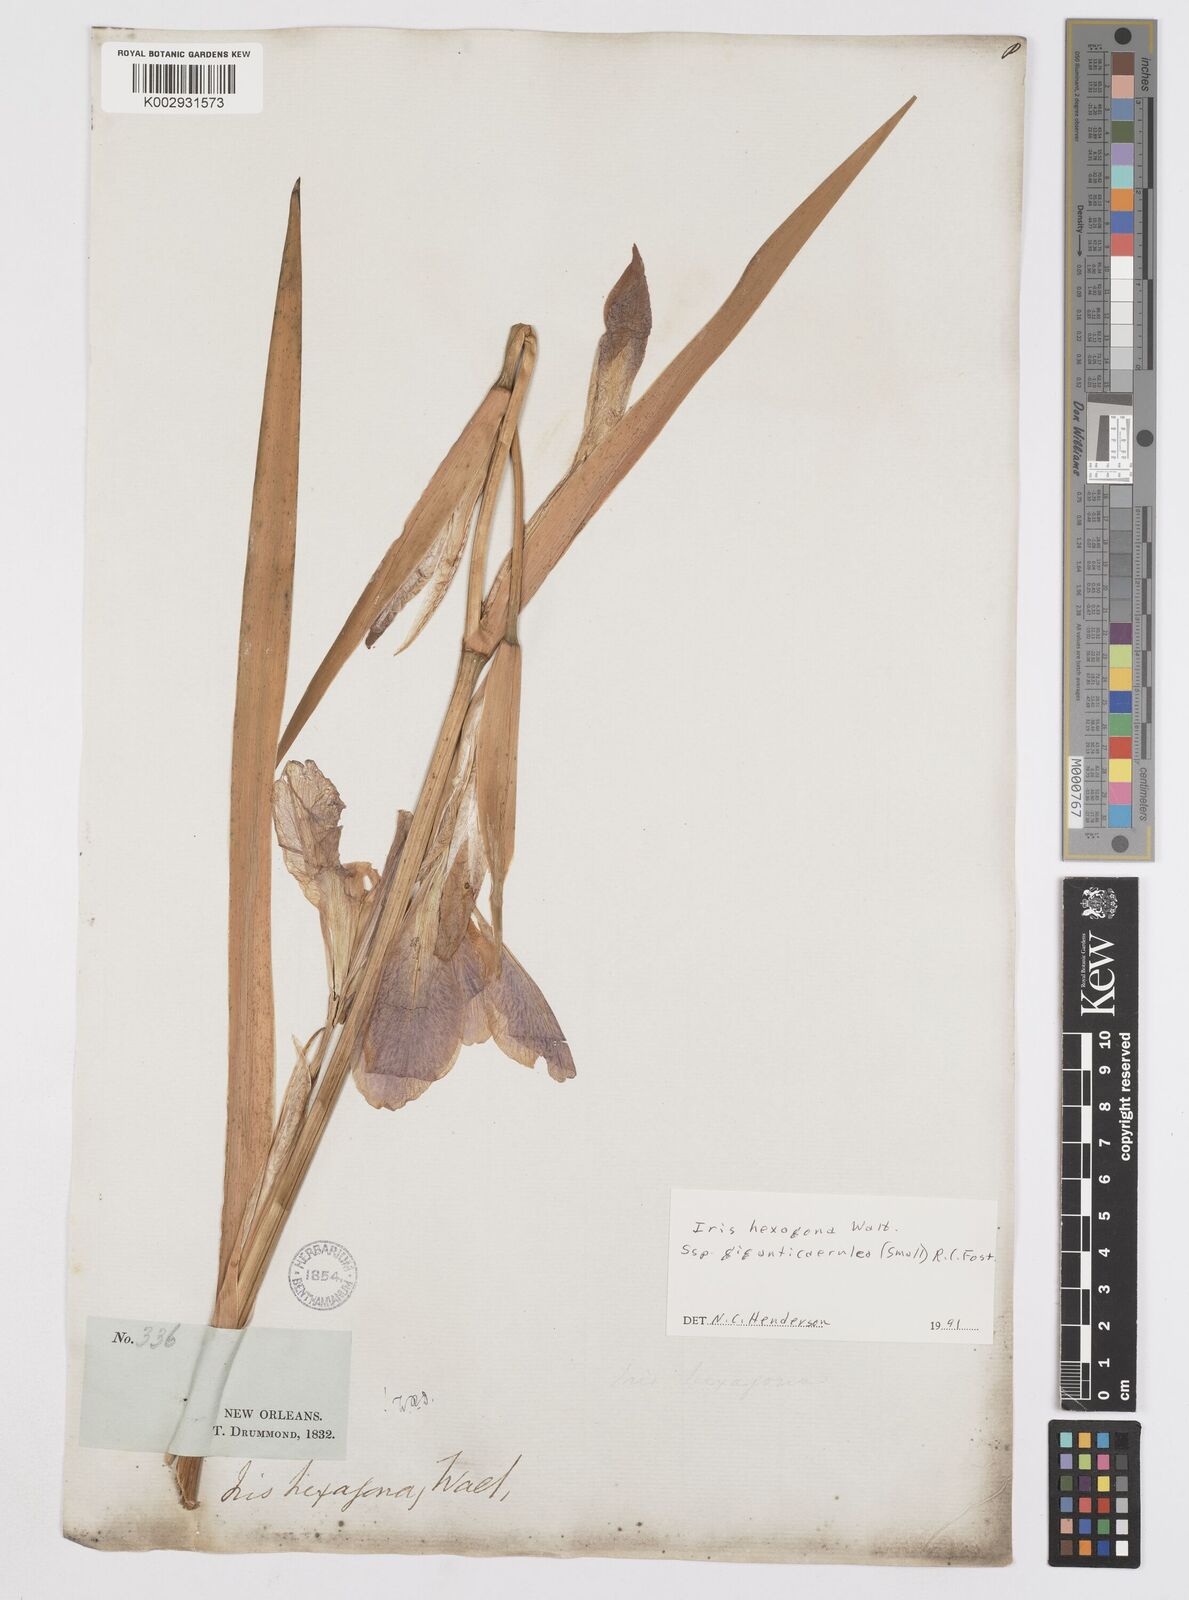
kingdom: Plantae
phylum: Tracheophyta
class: Liliopsida
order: Asparagales
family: Iridaceae
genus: Iris
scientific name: Iris hexagona
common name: Carolina iris
